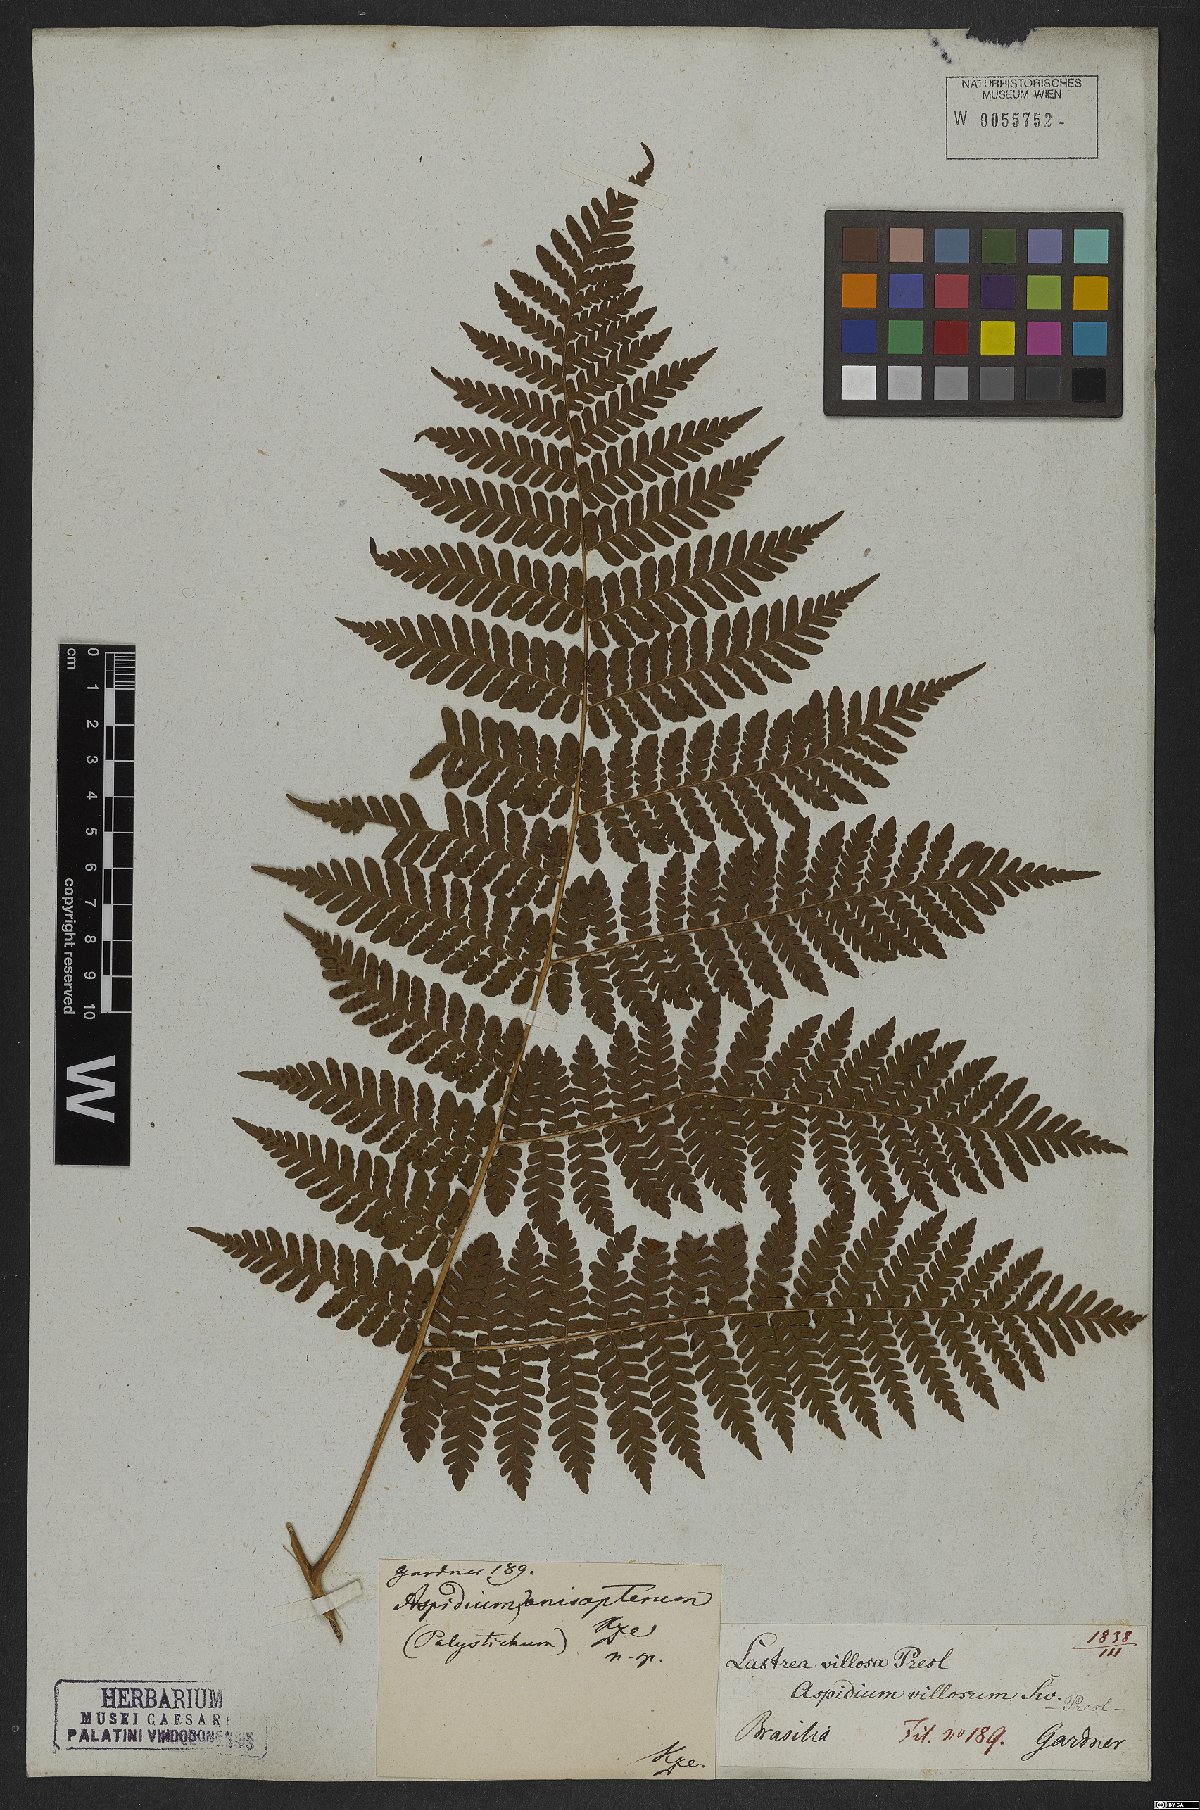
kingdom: Plantae
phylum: Tracheophyta
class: Polypodiopsida
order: Polypodiales
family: Dryopteridaceae
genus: Megalastrum
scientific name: Megalastrum villosum
